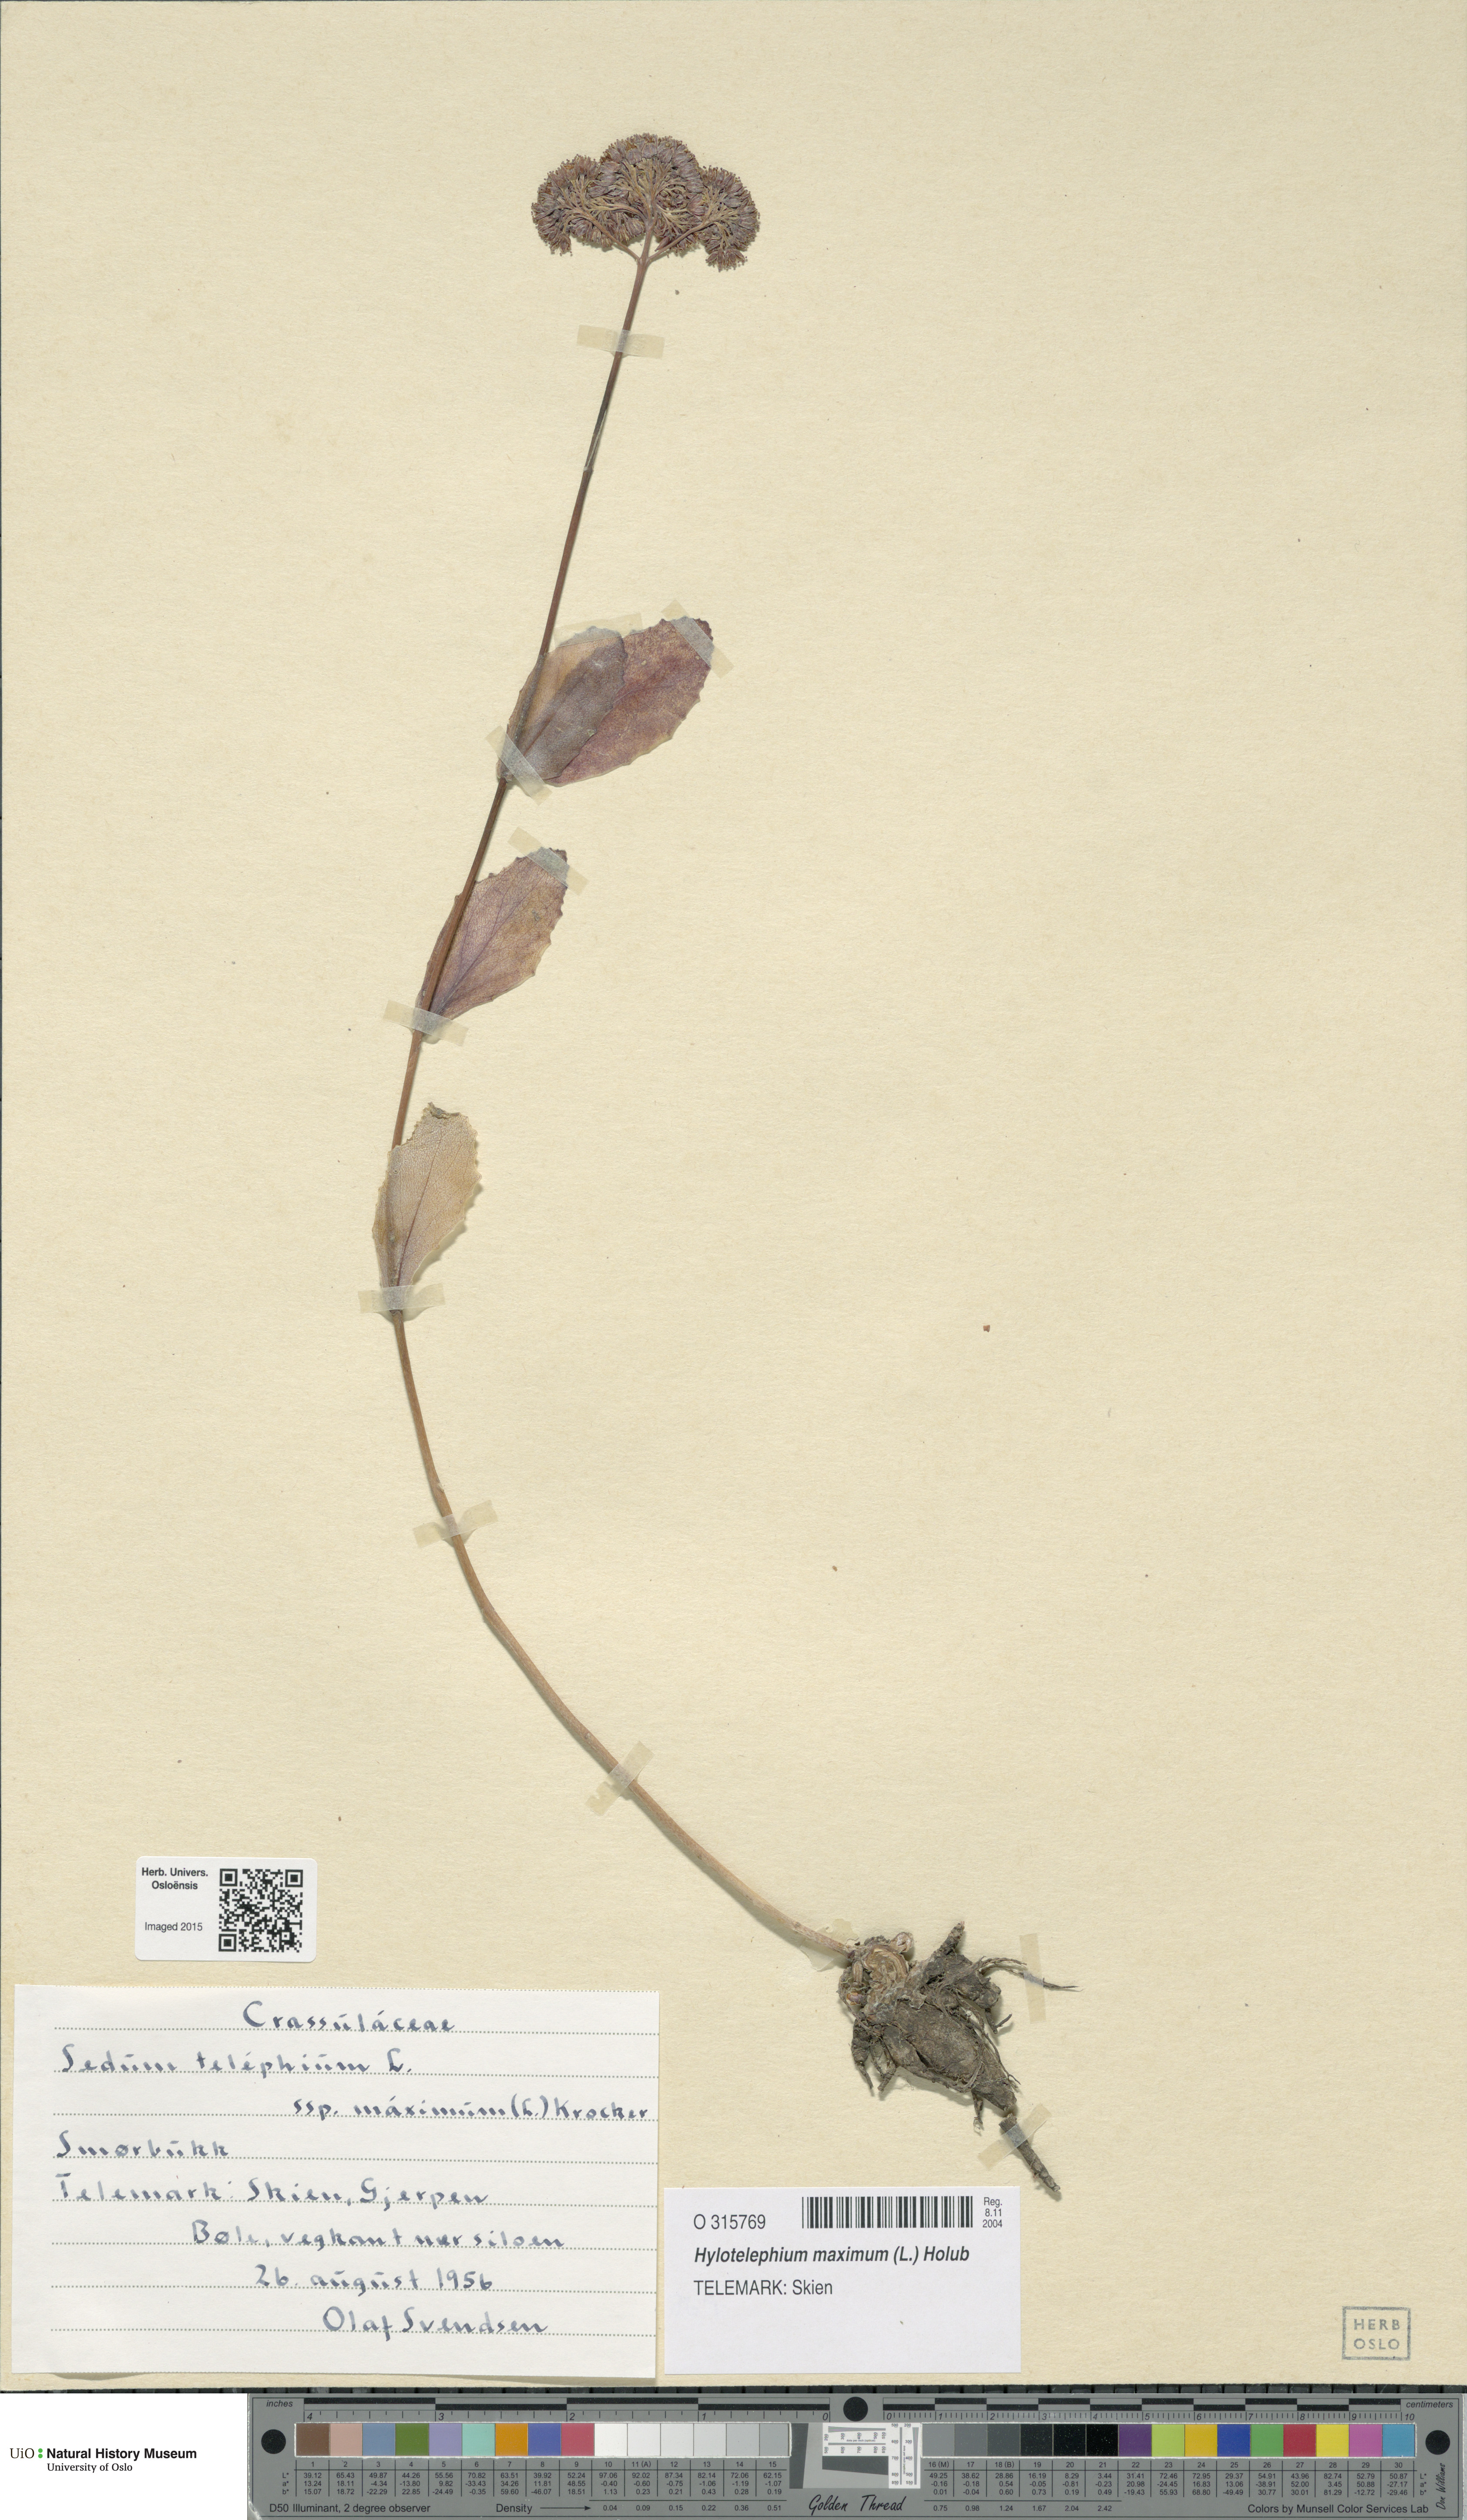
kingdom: Plantae
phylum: Tracheophyta
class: Magnoliopsida
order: Saxifragales
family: Crassulaceae
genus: Hylotelephium
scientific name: Hylotelephium maximum
